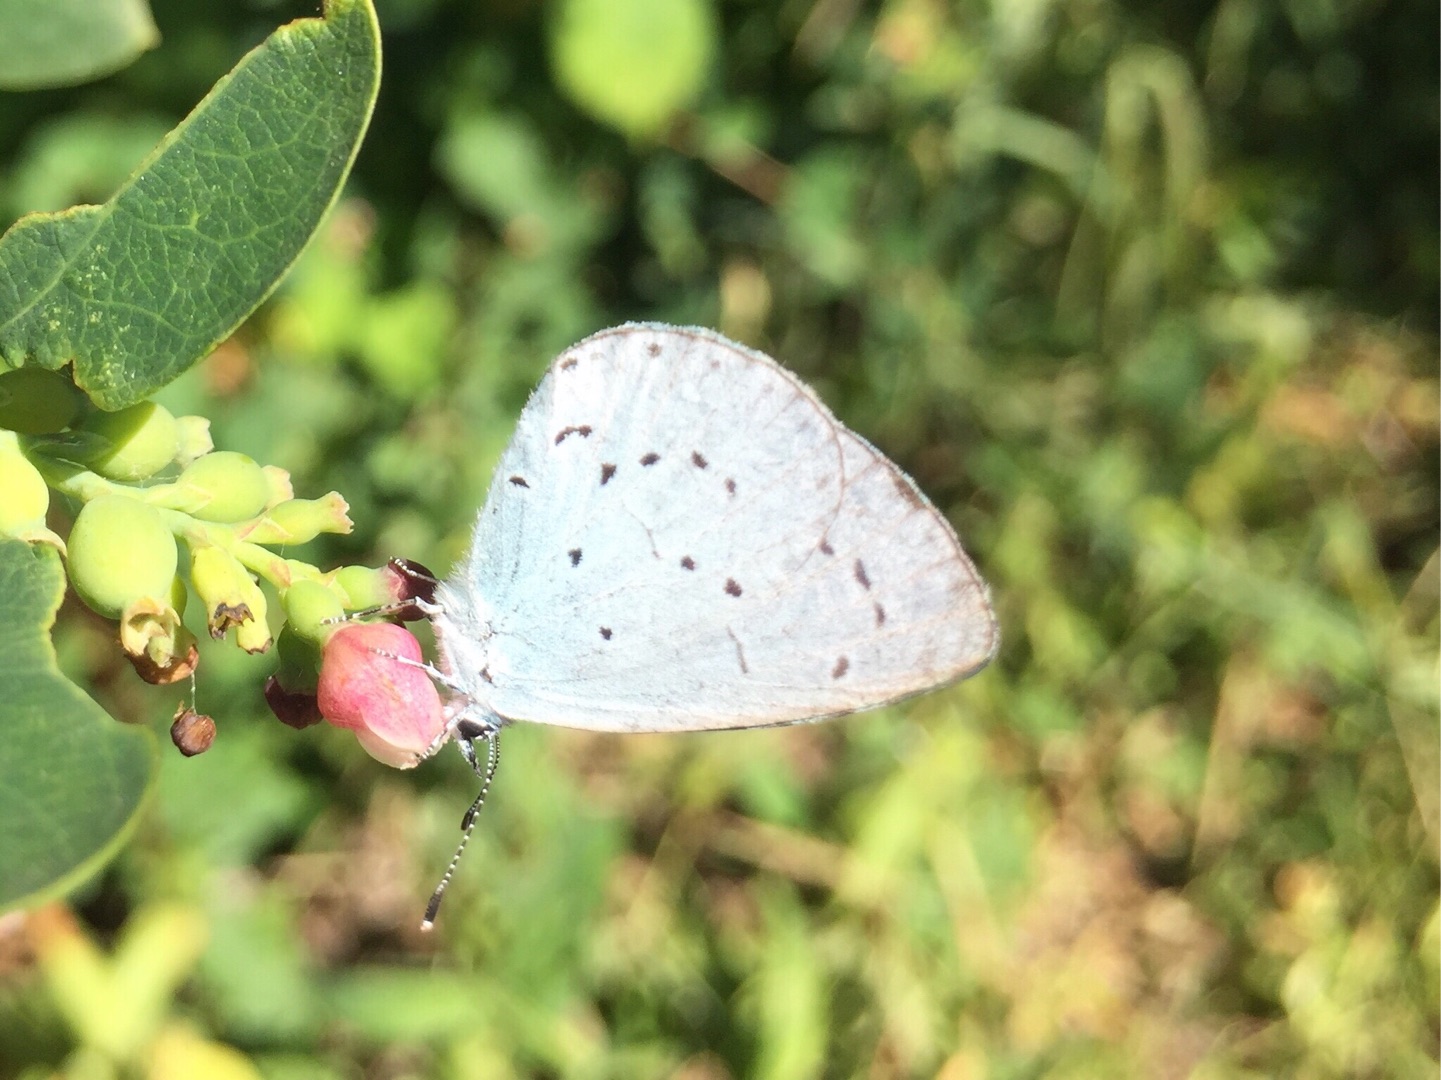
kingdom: Animalia
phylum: Arthropoda
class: Insecta
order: Lepidoptera
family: Lycaenidae
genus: Celastrina
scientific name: Celastrina argiolus
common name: Skovblåfugl
